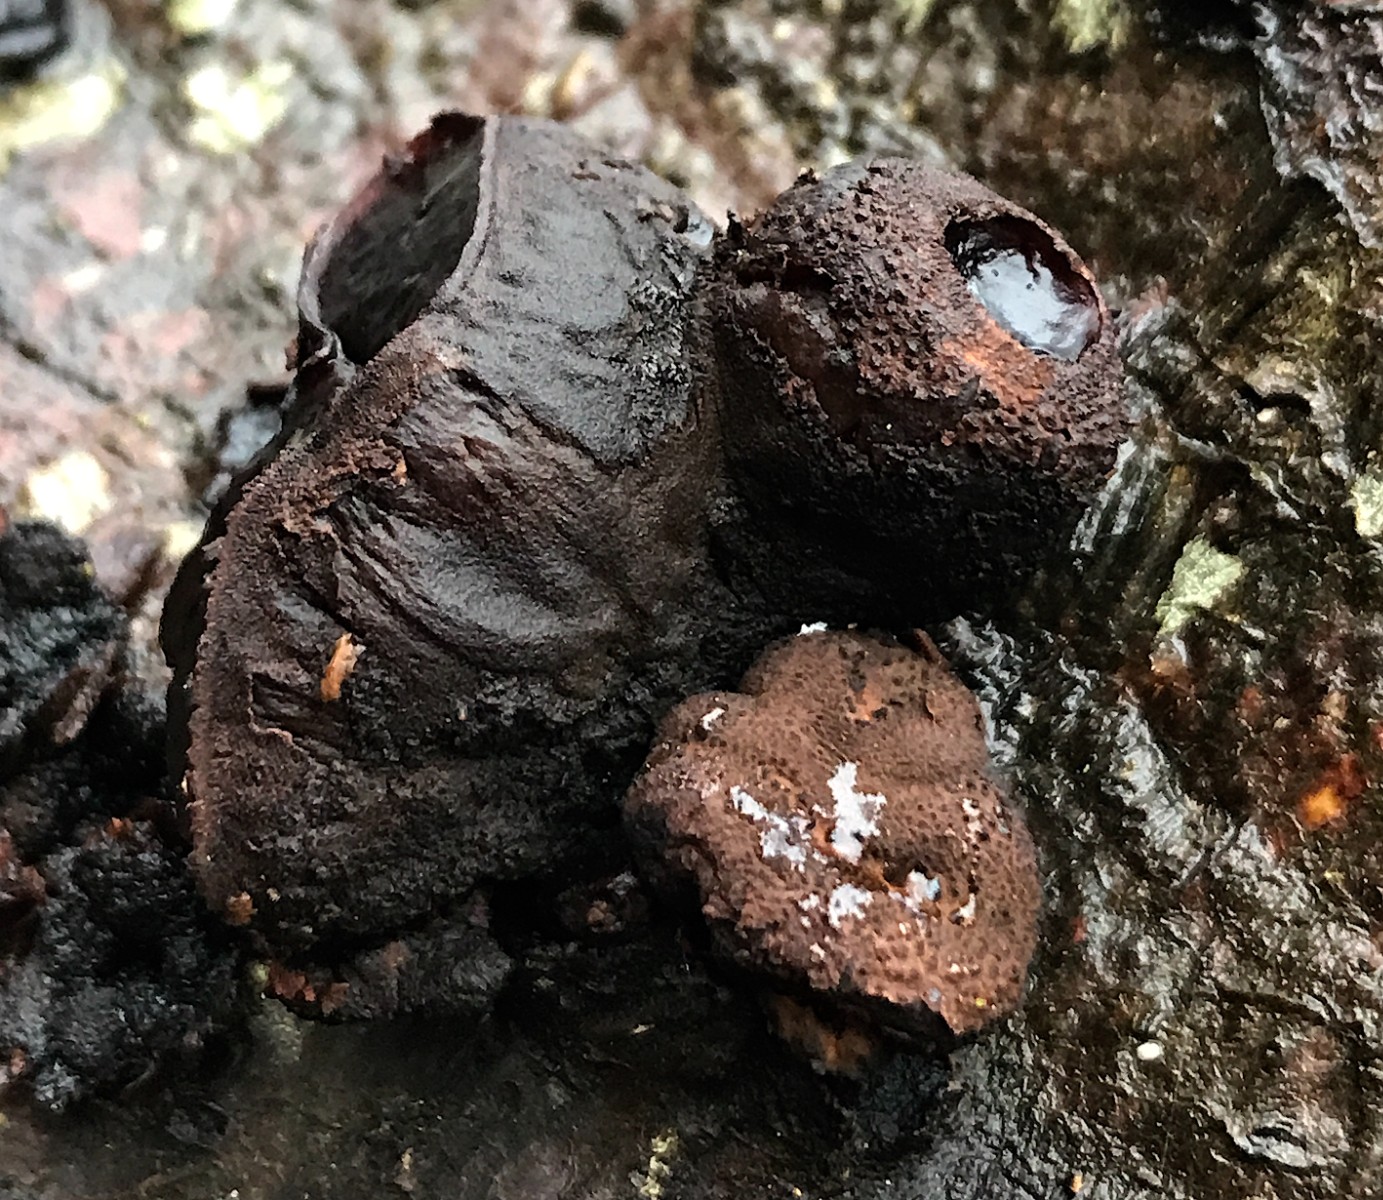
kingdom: Fungi
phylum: Ascomycota
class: Leotiomycetes
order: Phacidiales
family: Phacidiaceae
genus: Bulgaria
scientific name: Bulgaria inquinans
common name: afsmittende topsvamp
